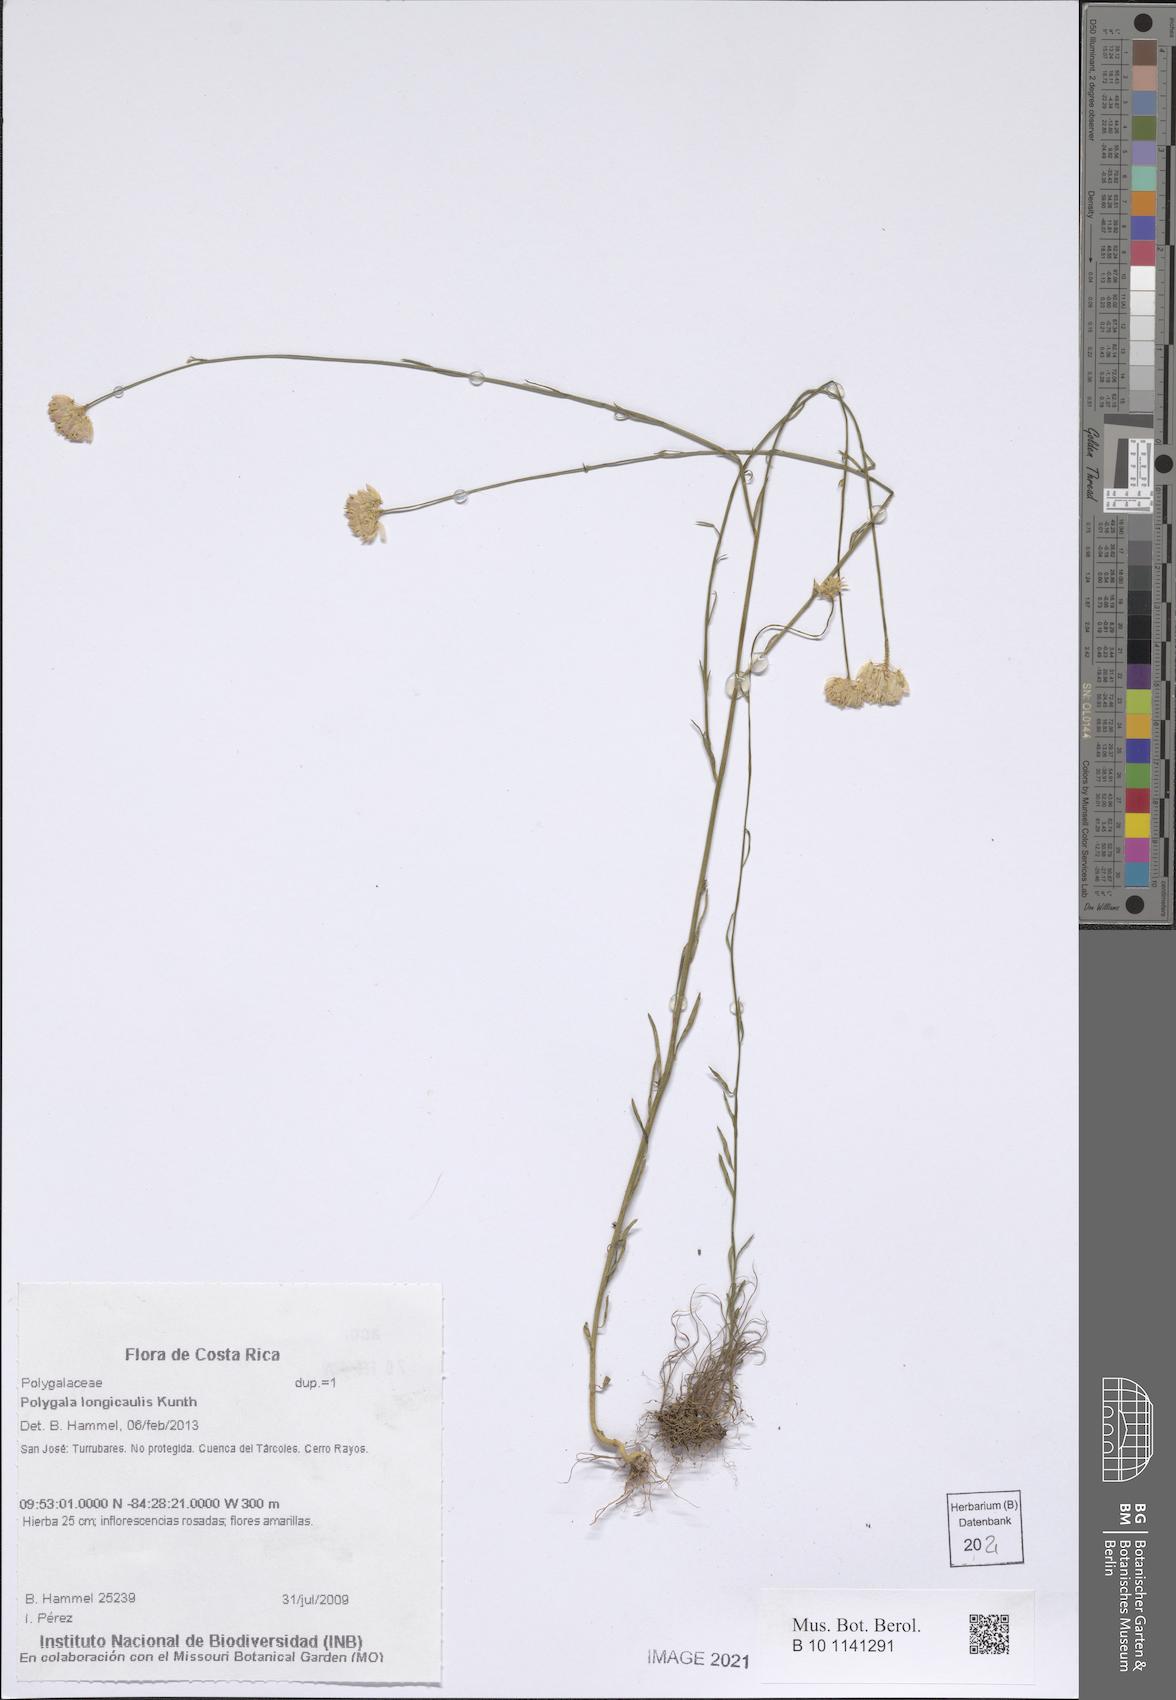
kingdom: Plantae
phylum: Tracheophyta
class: Magnoliopsida
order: Fabales
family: Polygalaceae
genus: Polygala
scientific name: Polygala longicaulis
